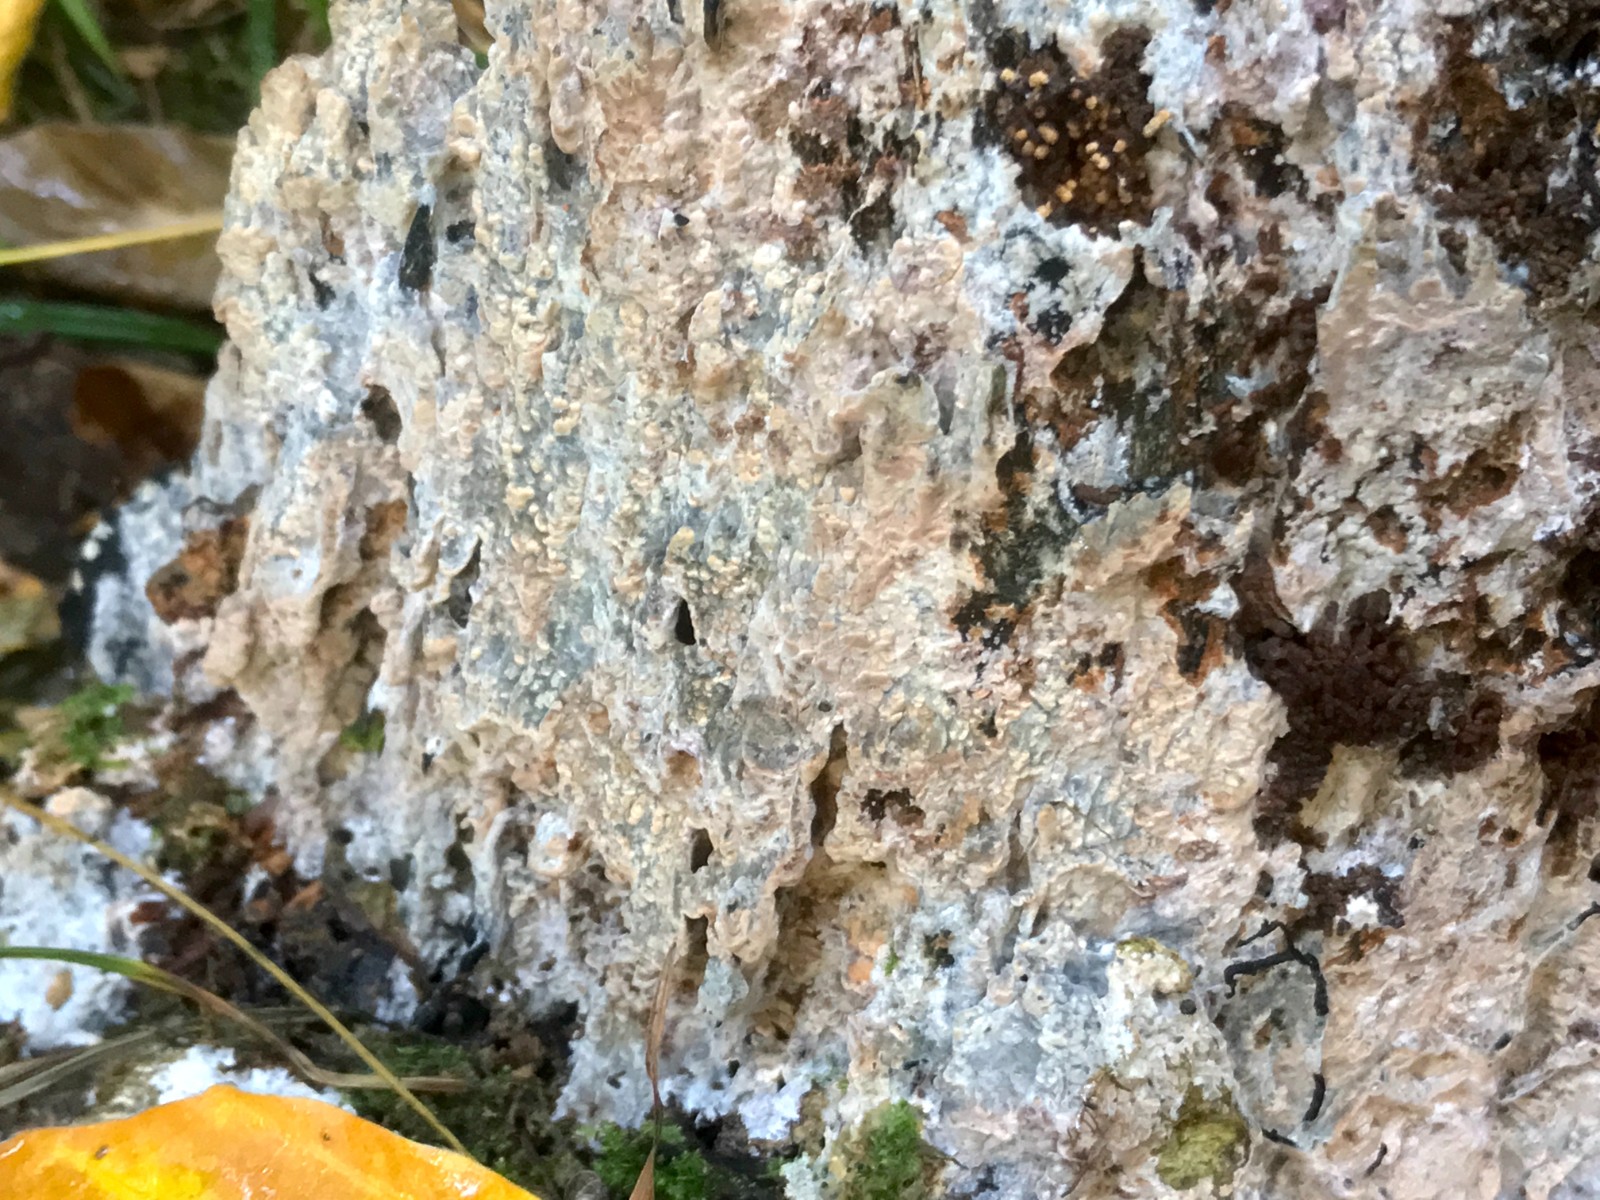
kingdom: Fungi
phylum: Basidiomycota
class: Agaricomycetes
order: Polyporales
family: Phanerochaetaceae
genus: Phlebiopsis
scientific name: Phlebiopsis gigantea
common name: kæmpebarksvamp
